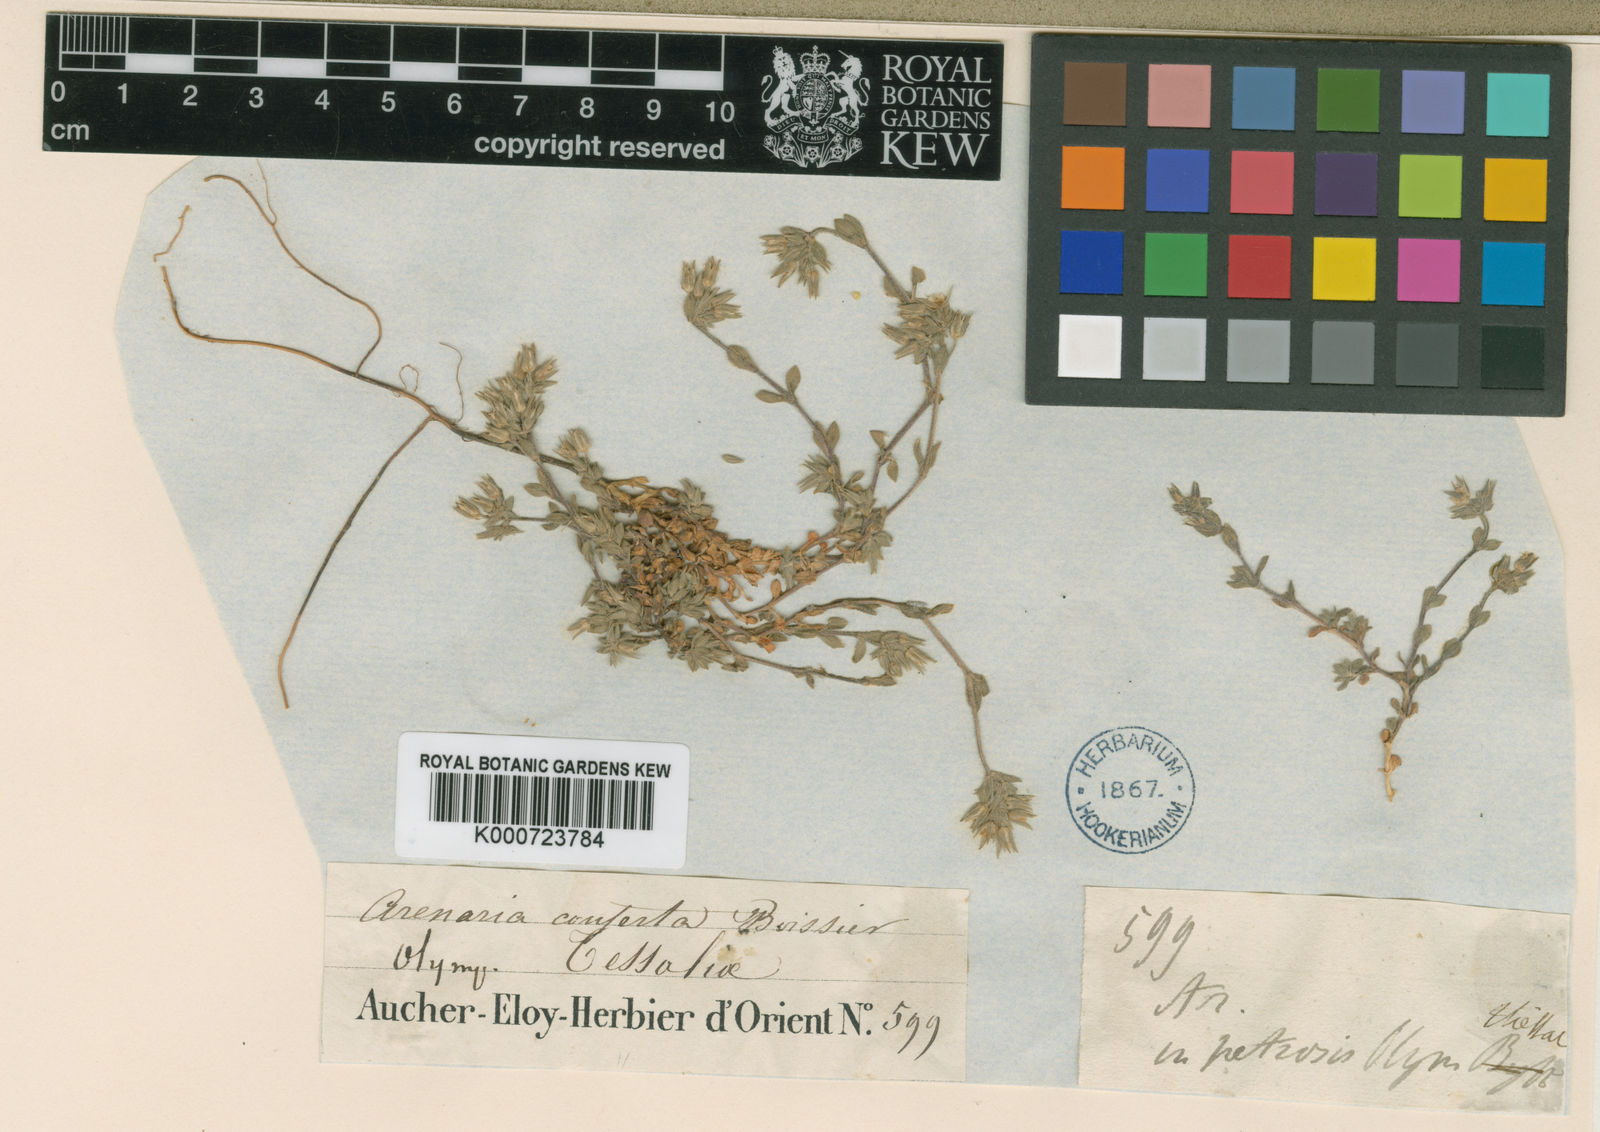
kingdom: Plantae
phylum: Tracheophyta
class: Magnoliopsida
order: Caryophyllales
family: Caryophyllaceae
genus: Arenaria
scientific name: Arenaria conferta
